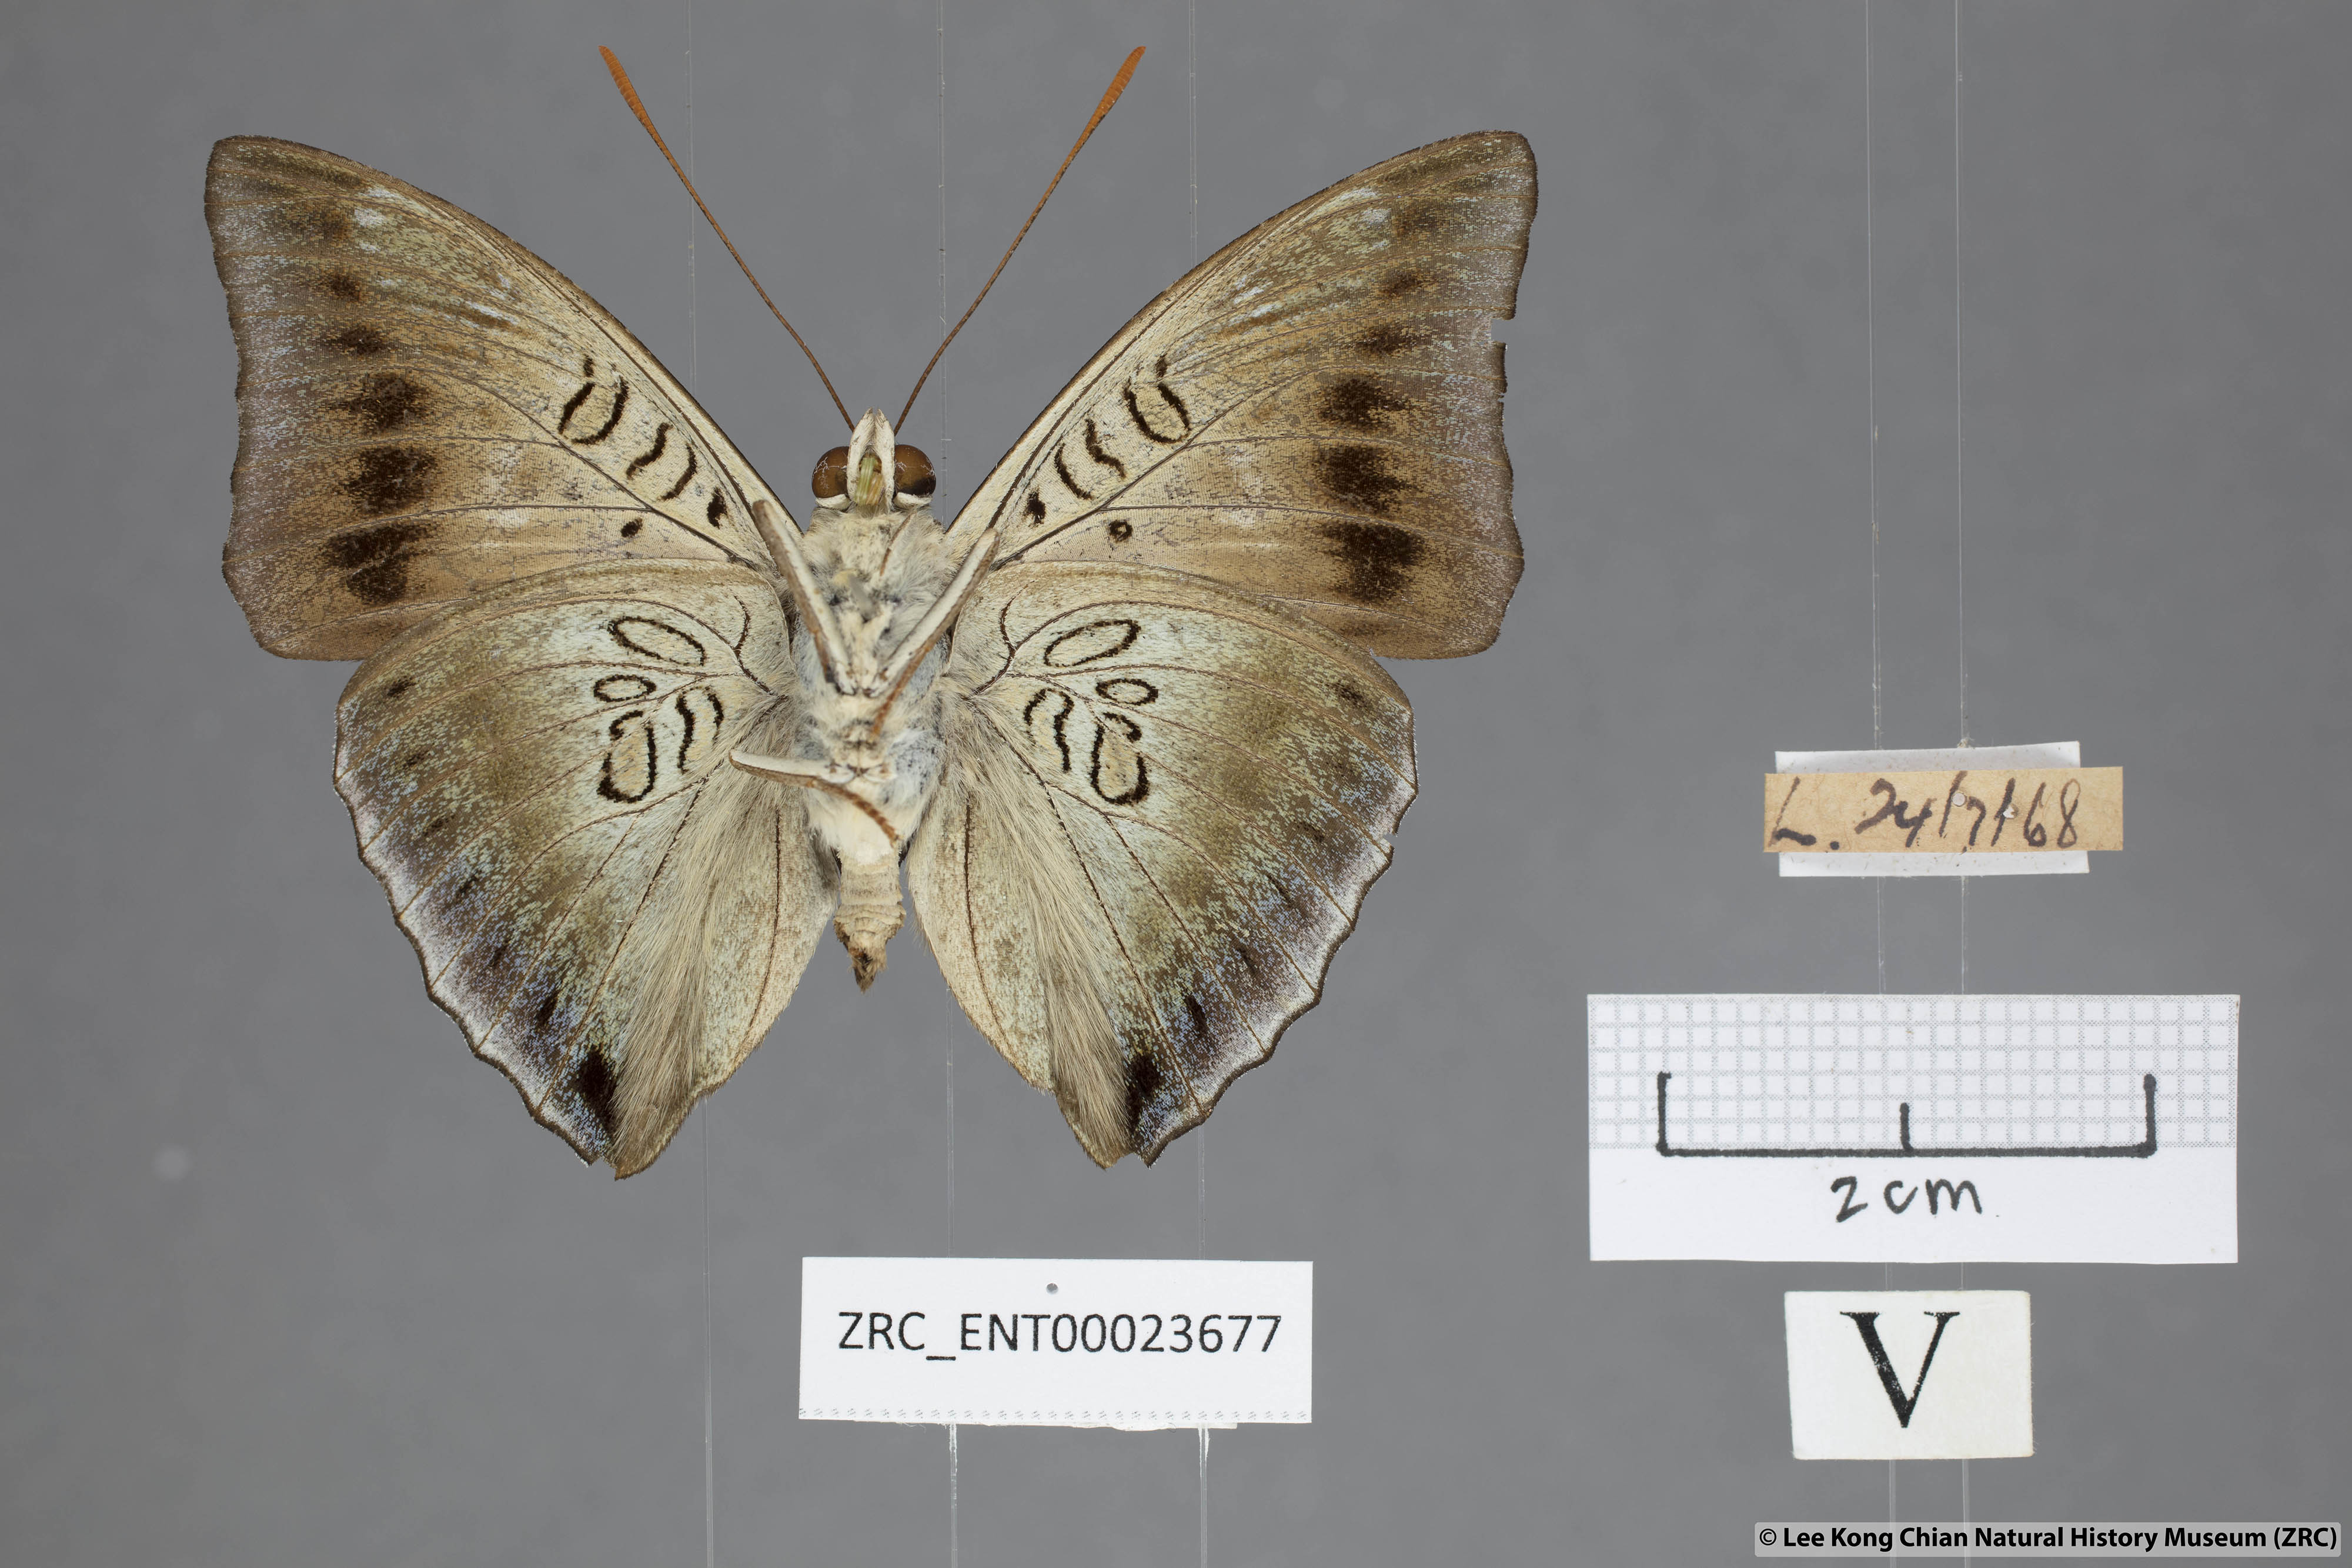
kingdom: Animalia
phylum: Arthropoda
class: Insecta
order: Lepidoptera
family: Nymphalidae
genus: Euthalia
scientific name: Euthalia phemius
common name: White-edged blue baron
